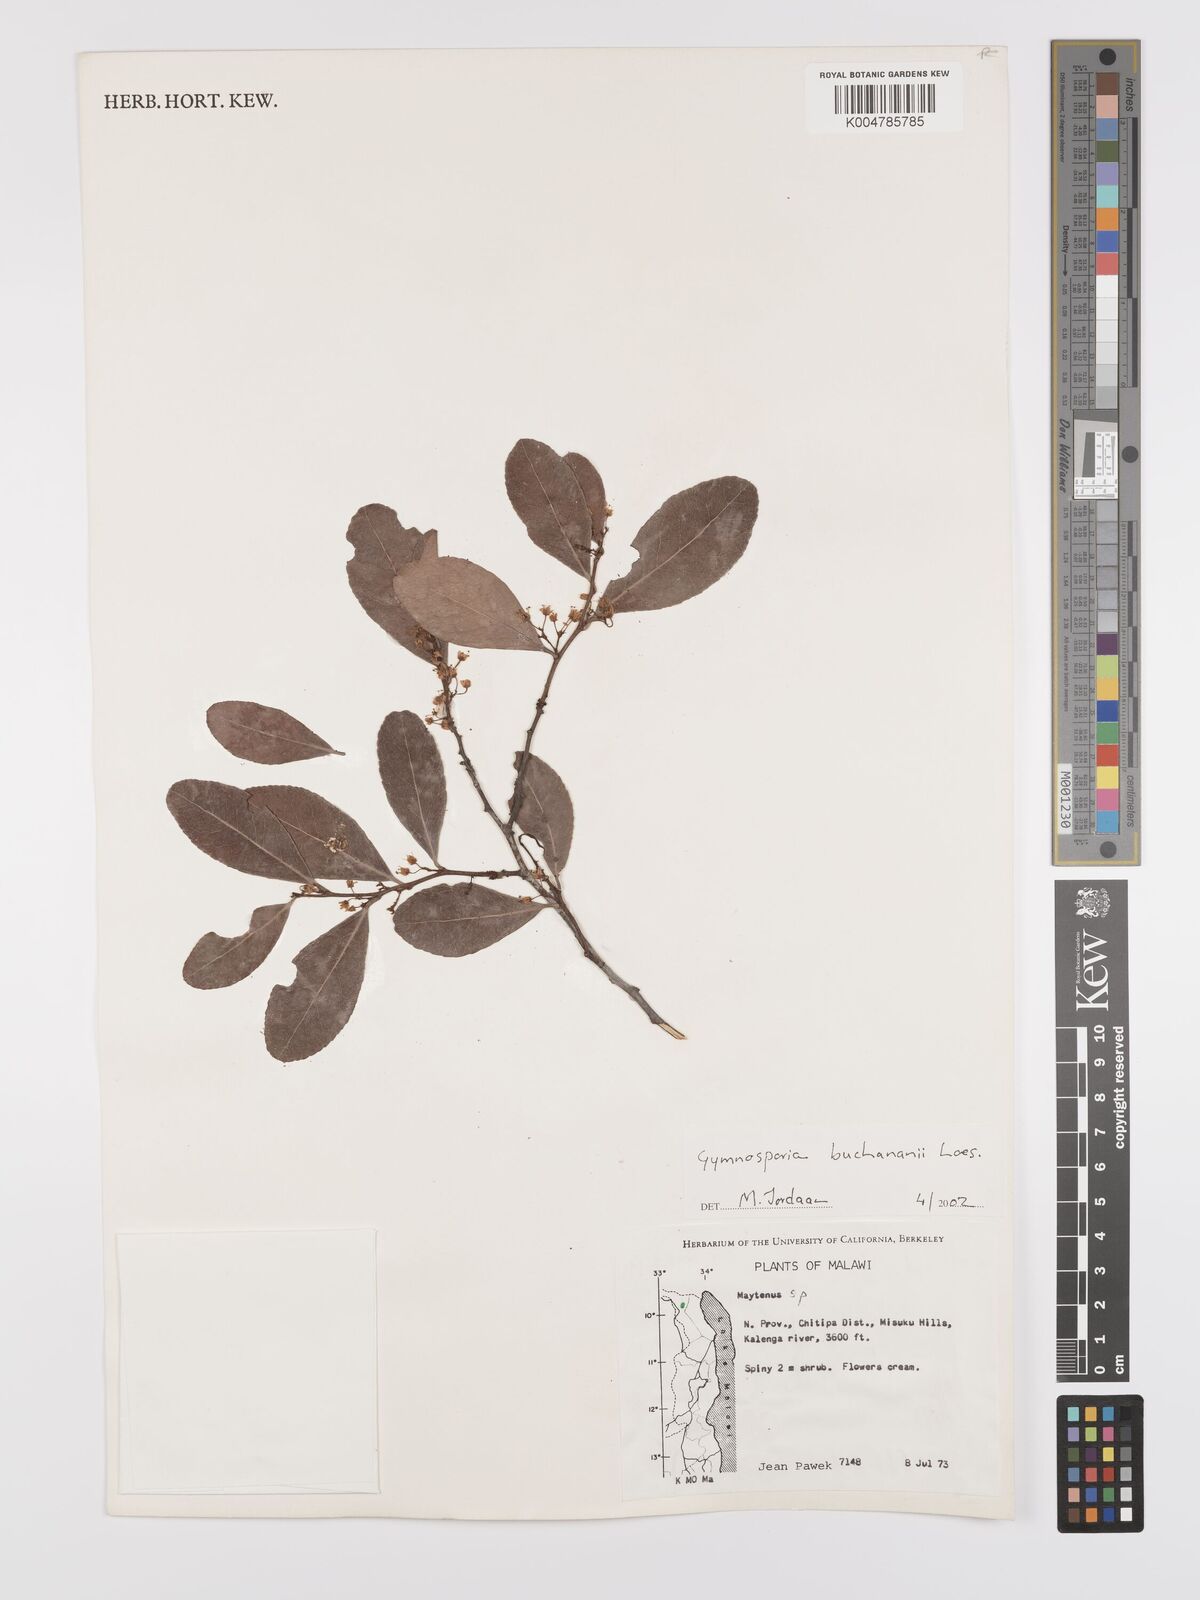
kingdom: Plantae
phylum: Tracheophyta
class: Magnoliopsida
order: Celastrales
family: Celastraceae
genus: Gymnosporia
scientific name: Gymnosporia buchananii
